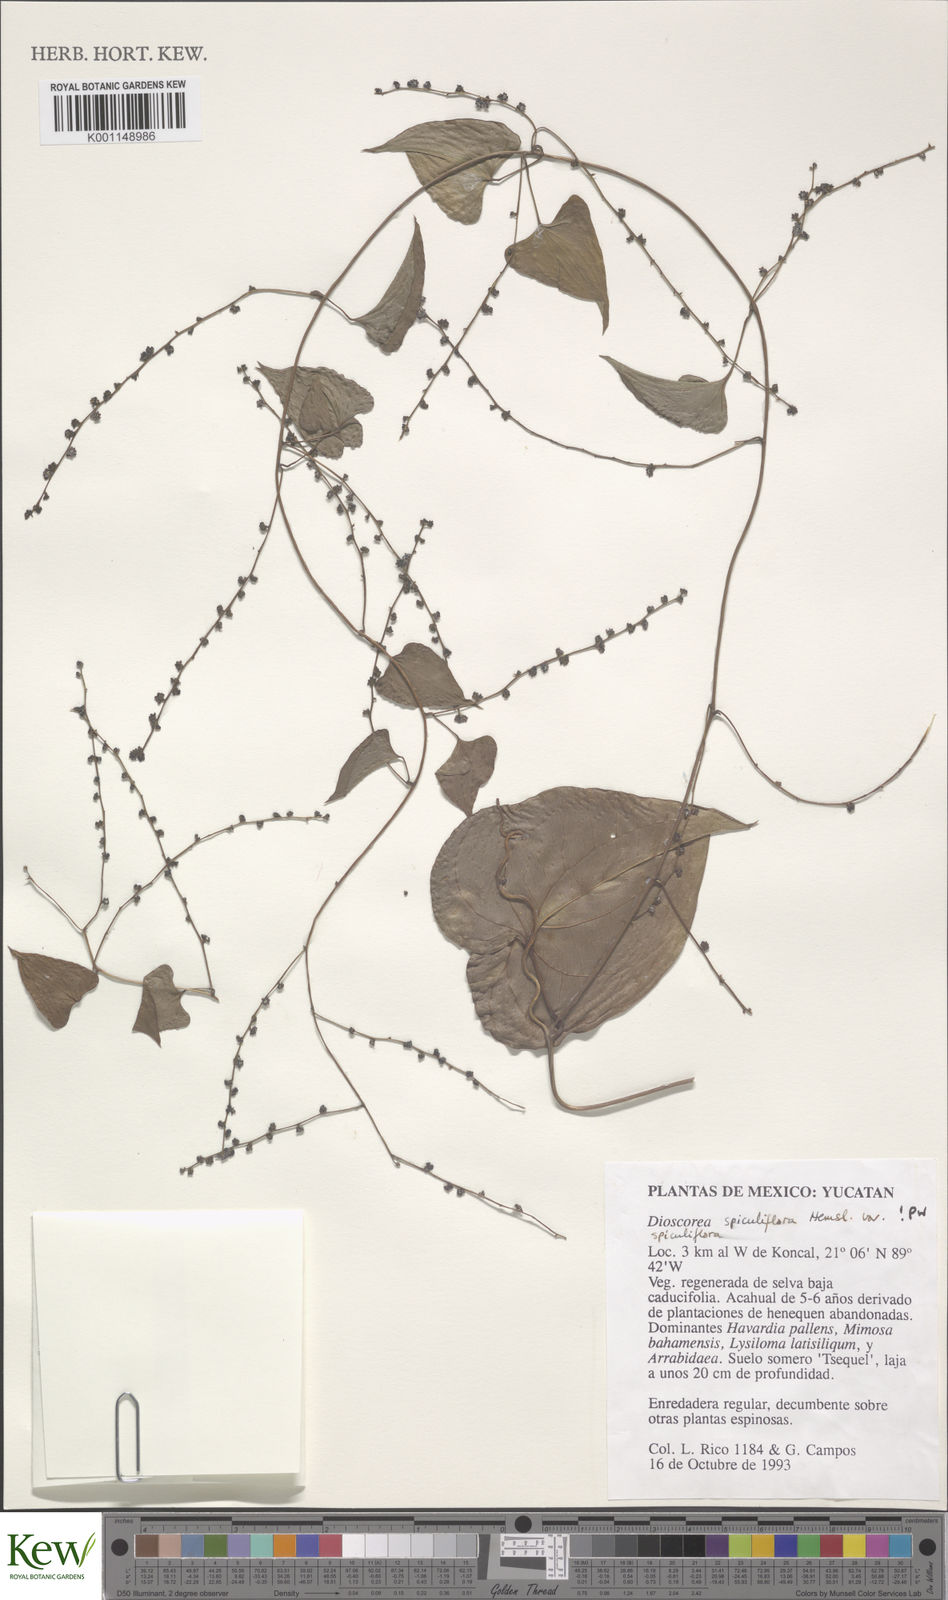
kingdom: Plantae
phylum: Tracheophyta
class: Liliopsida
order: Dioscoreales
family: Dioscoreaceae
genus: Dioscorea
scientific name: Dioscorea spiculiflora
